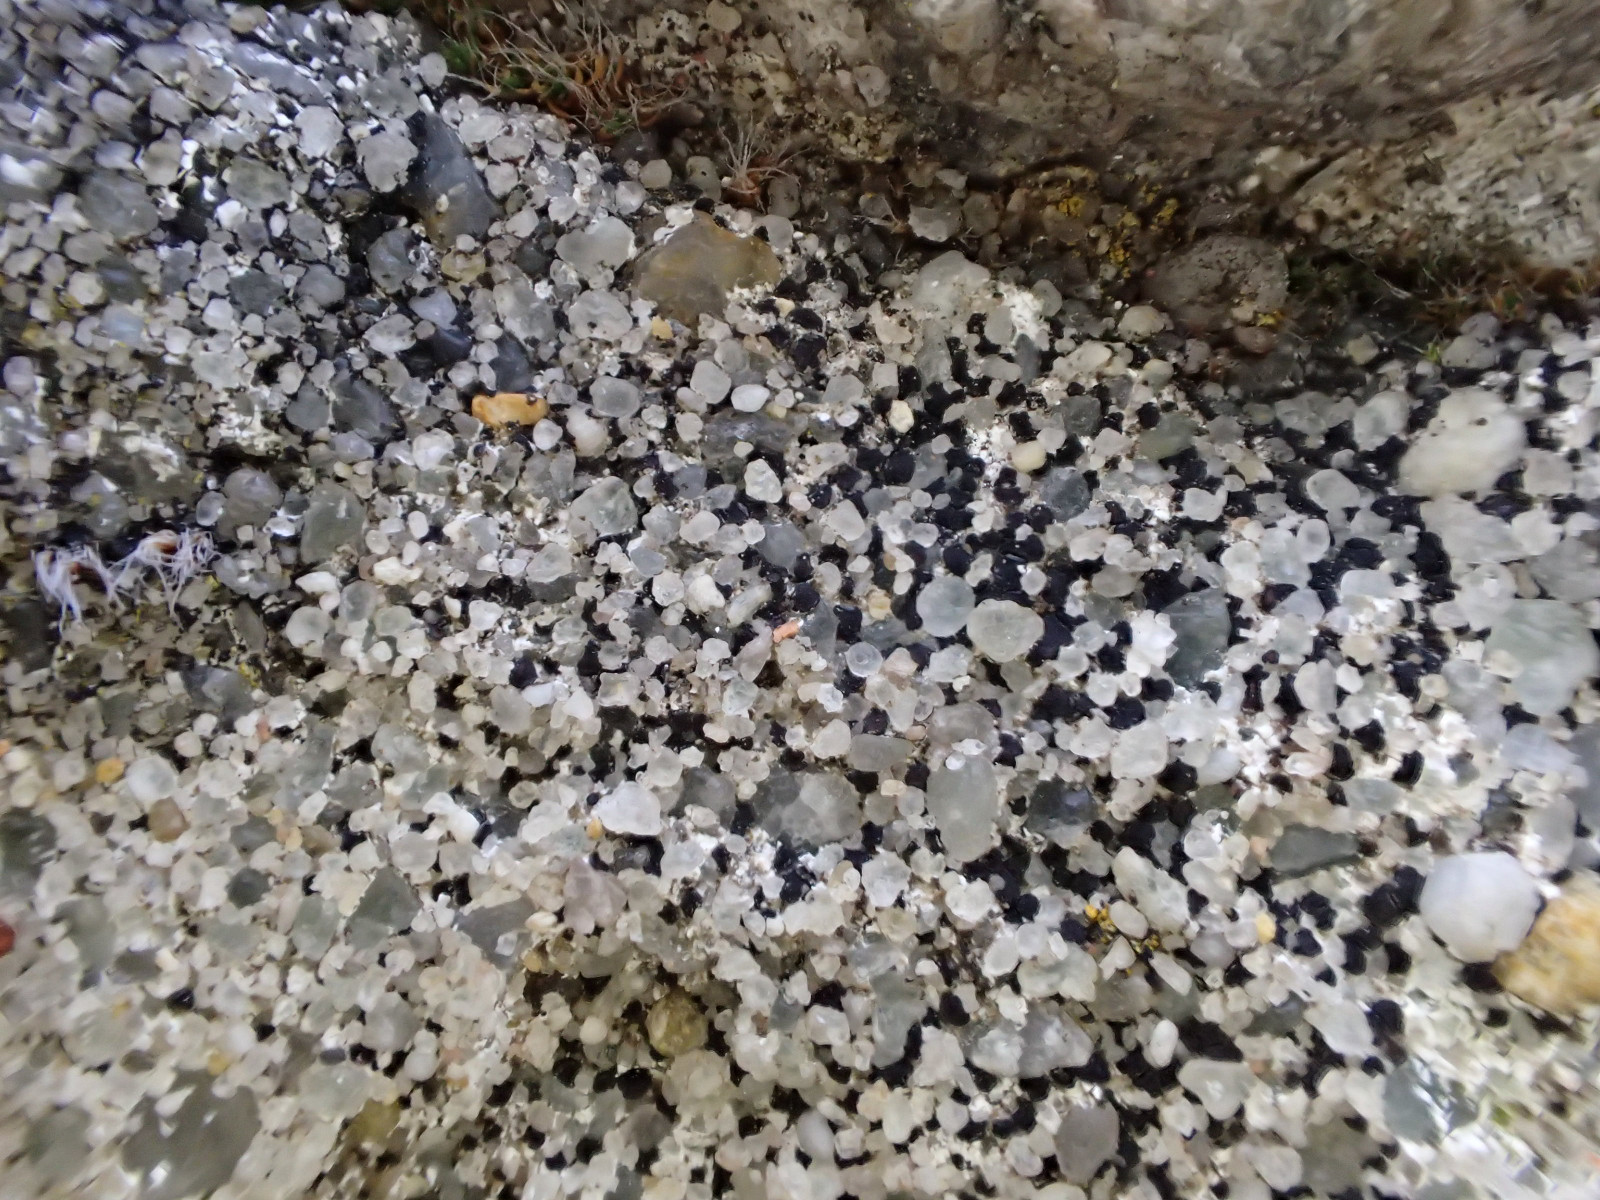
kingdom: Fungi
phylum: Ascomycota
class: Lecanoromycetes
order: Acarosporales
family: Acarosporaceae
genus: Sarcogyne
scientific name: Sarcogyne regularis
